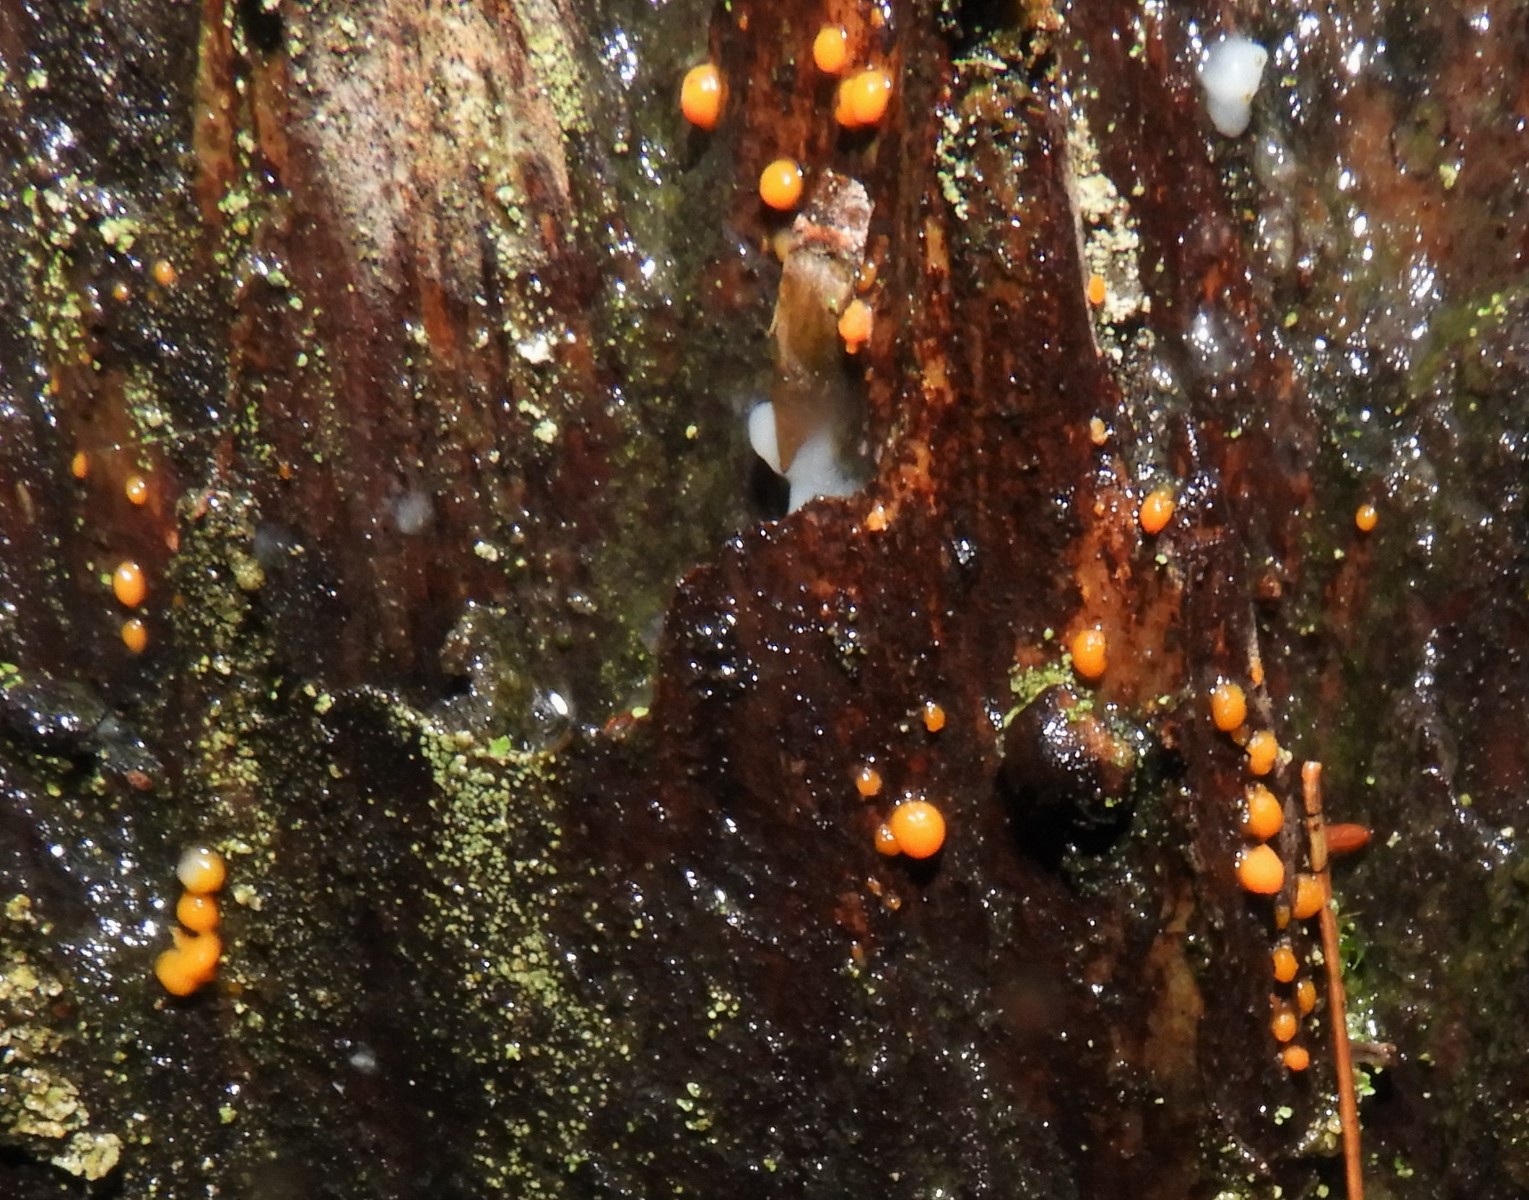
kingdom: Fungi
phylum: Basidiomycota
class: Dacrymycetes
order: Dacrymycetales
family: Dacrymycetaceae
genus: Dacrymyces
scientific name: Dacrymyces stillatus
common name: almindelig tåresvamp
